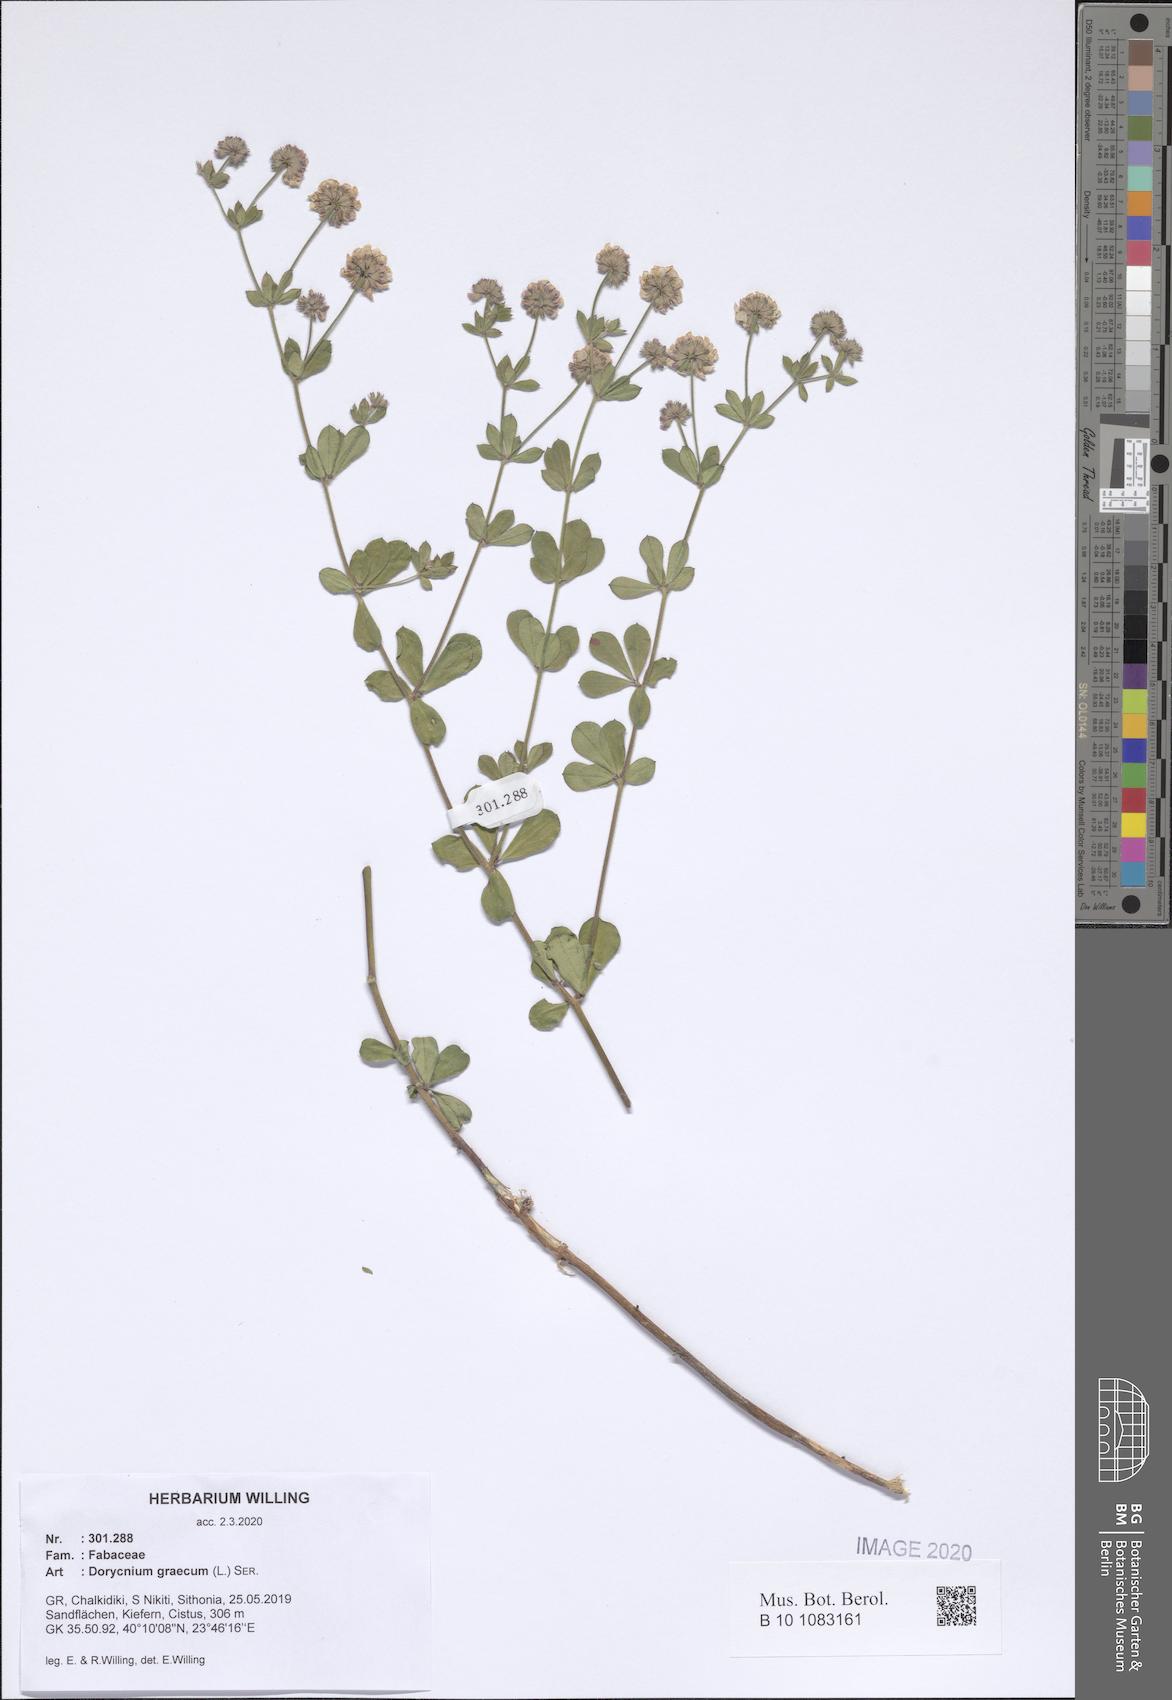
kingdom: Plantae
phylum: Tracheophyta
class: Magnoliopsida
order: Fabales
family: Fabaceae
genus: Lotus
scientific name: Lotus graecus
